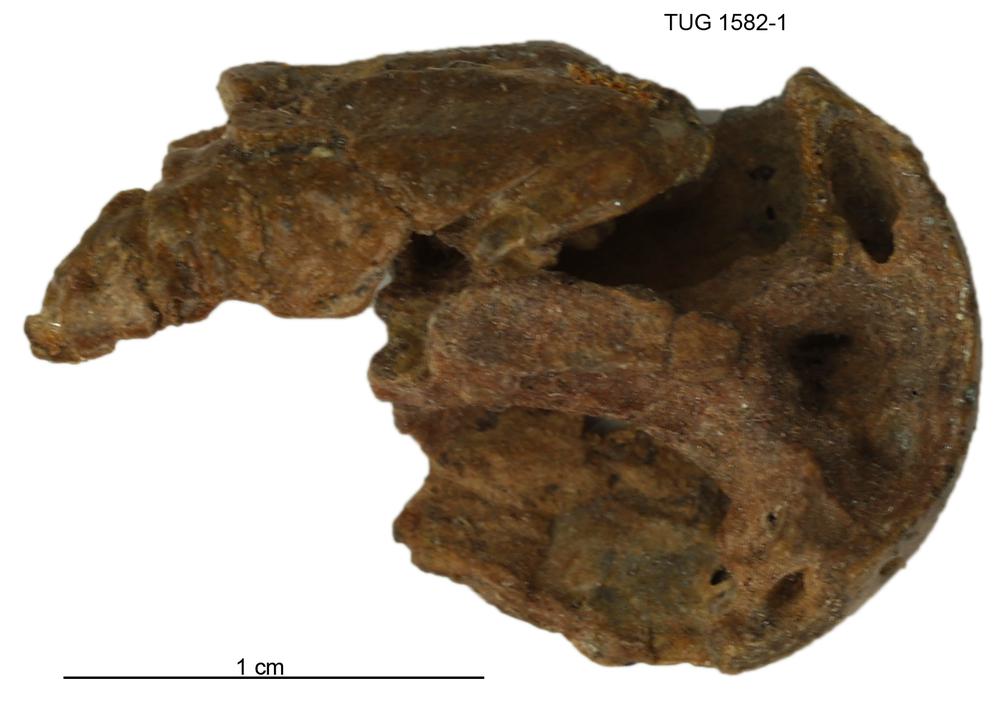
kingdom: Animalia
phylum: Chordata
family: Thursiidae
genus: Thursius
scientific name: Thursius estonicus
